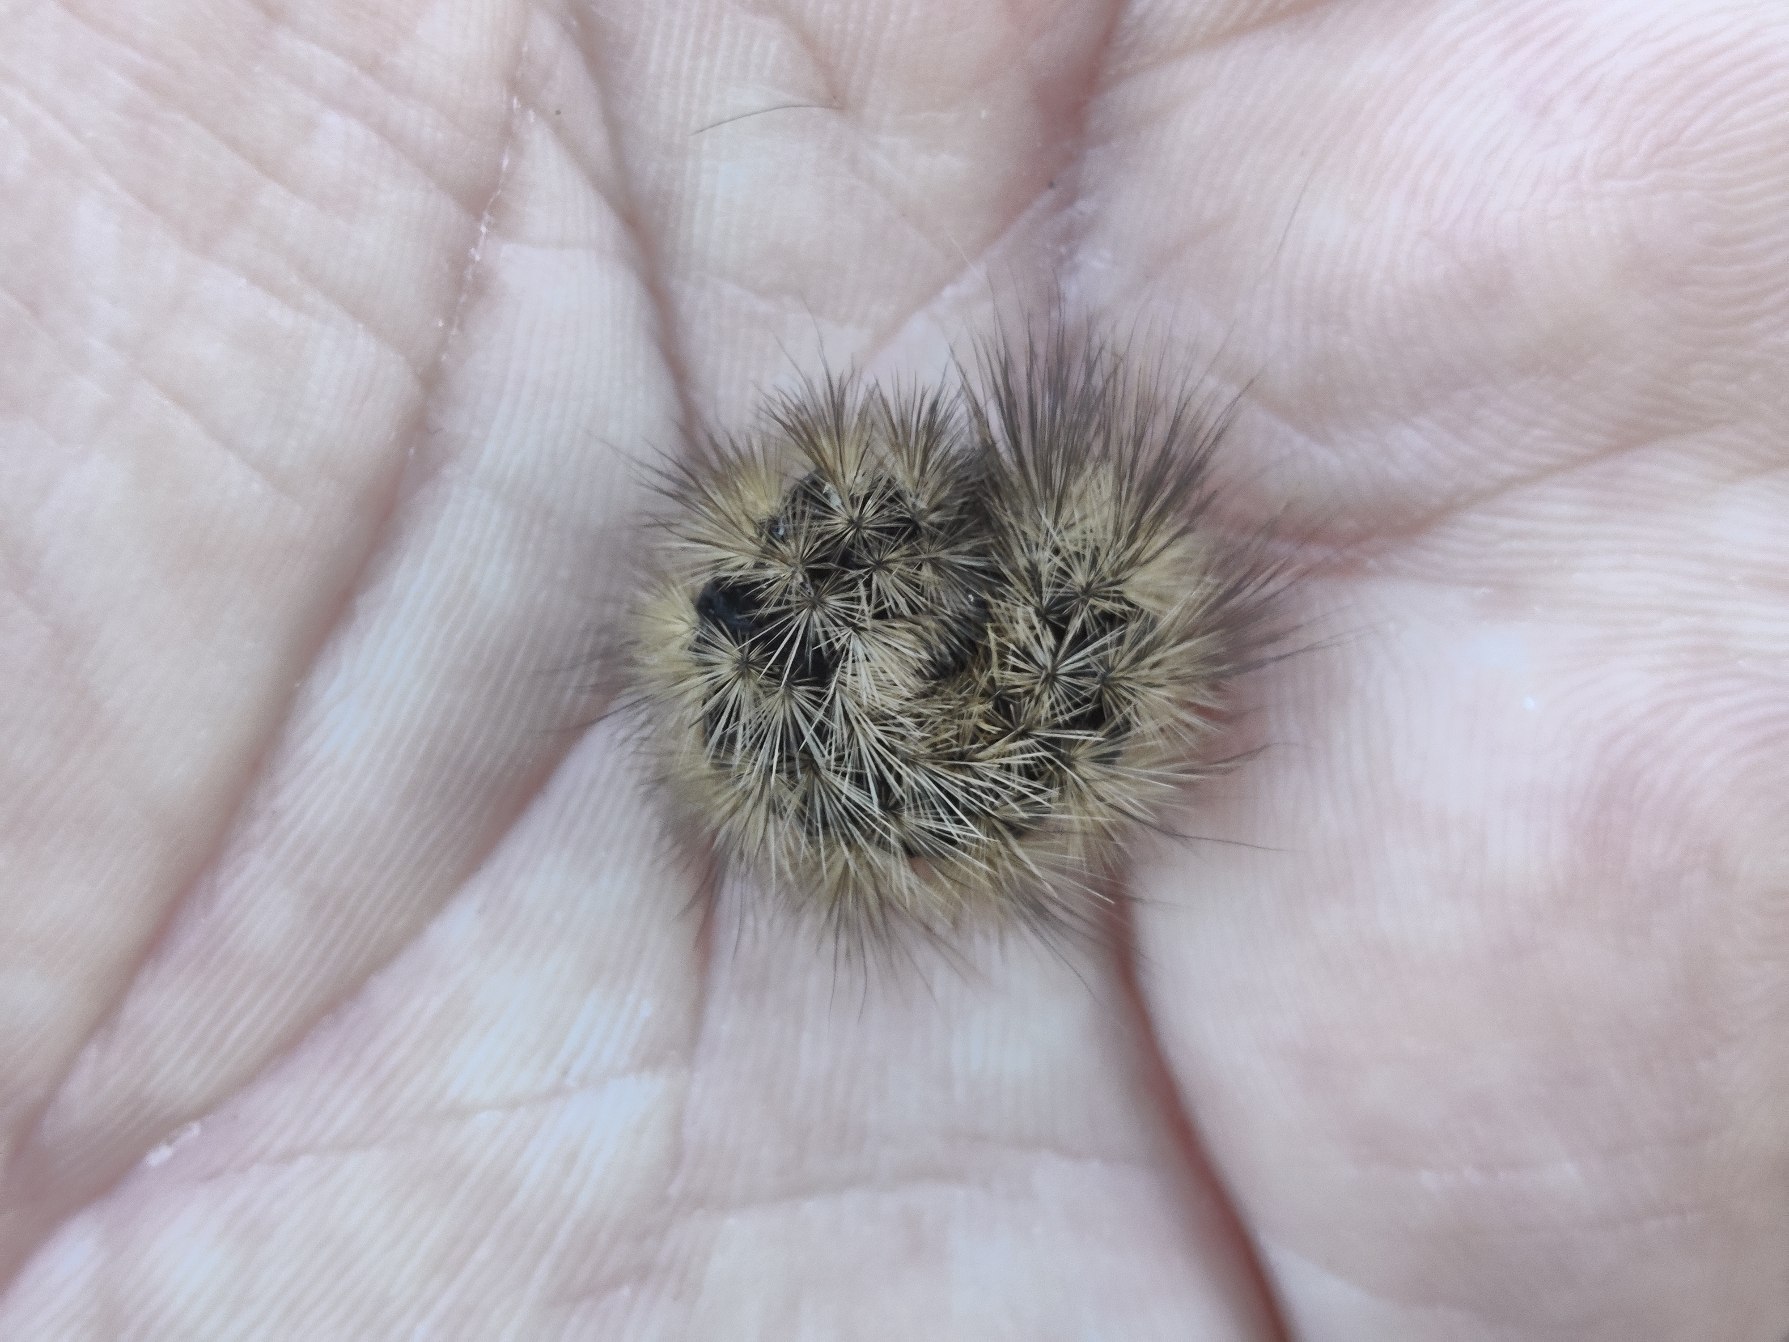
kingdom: Animalia
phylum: Arthropoda
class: Insecta
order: Lepidoptera
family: Erebidae
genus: Phragmatobia
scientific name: Phragmatobia fuliginosa
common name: Kanelbjørn
